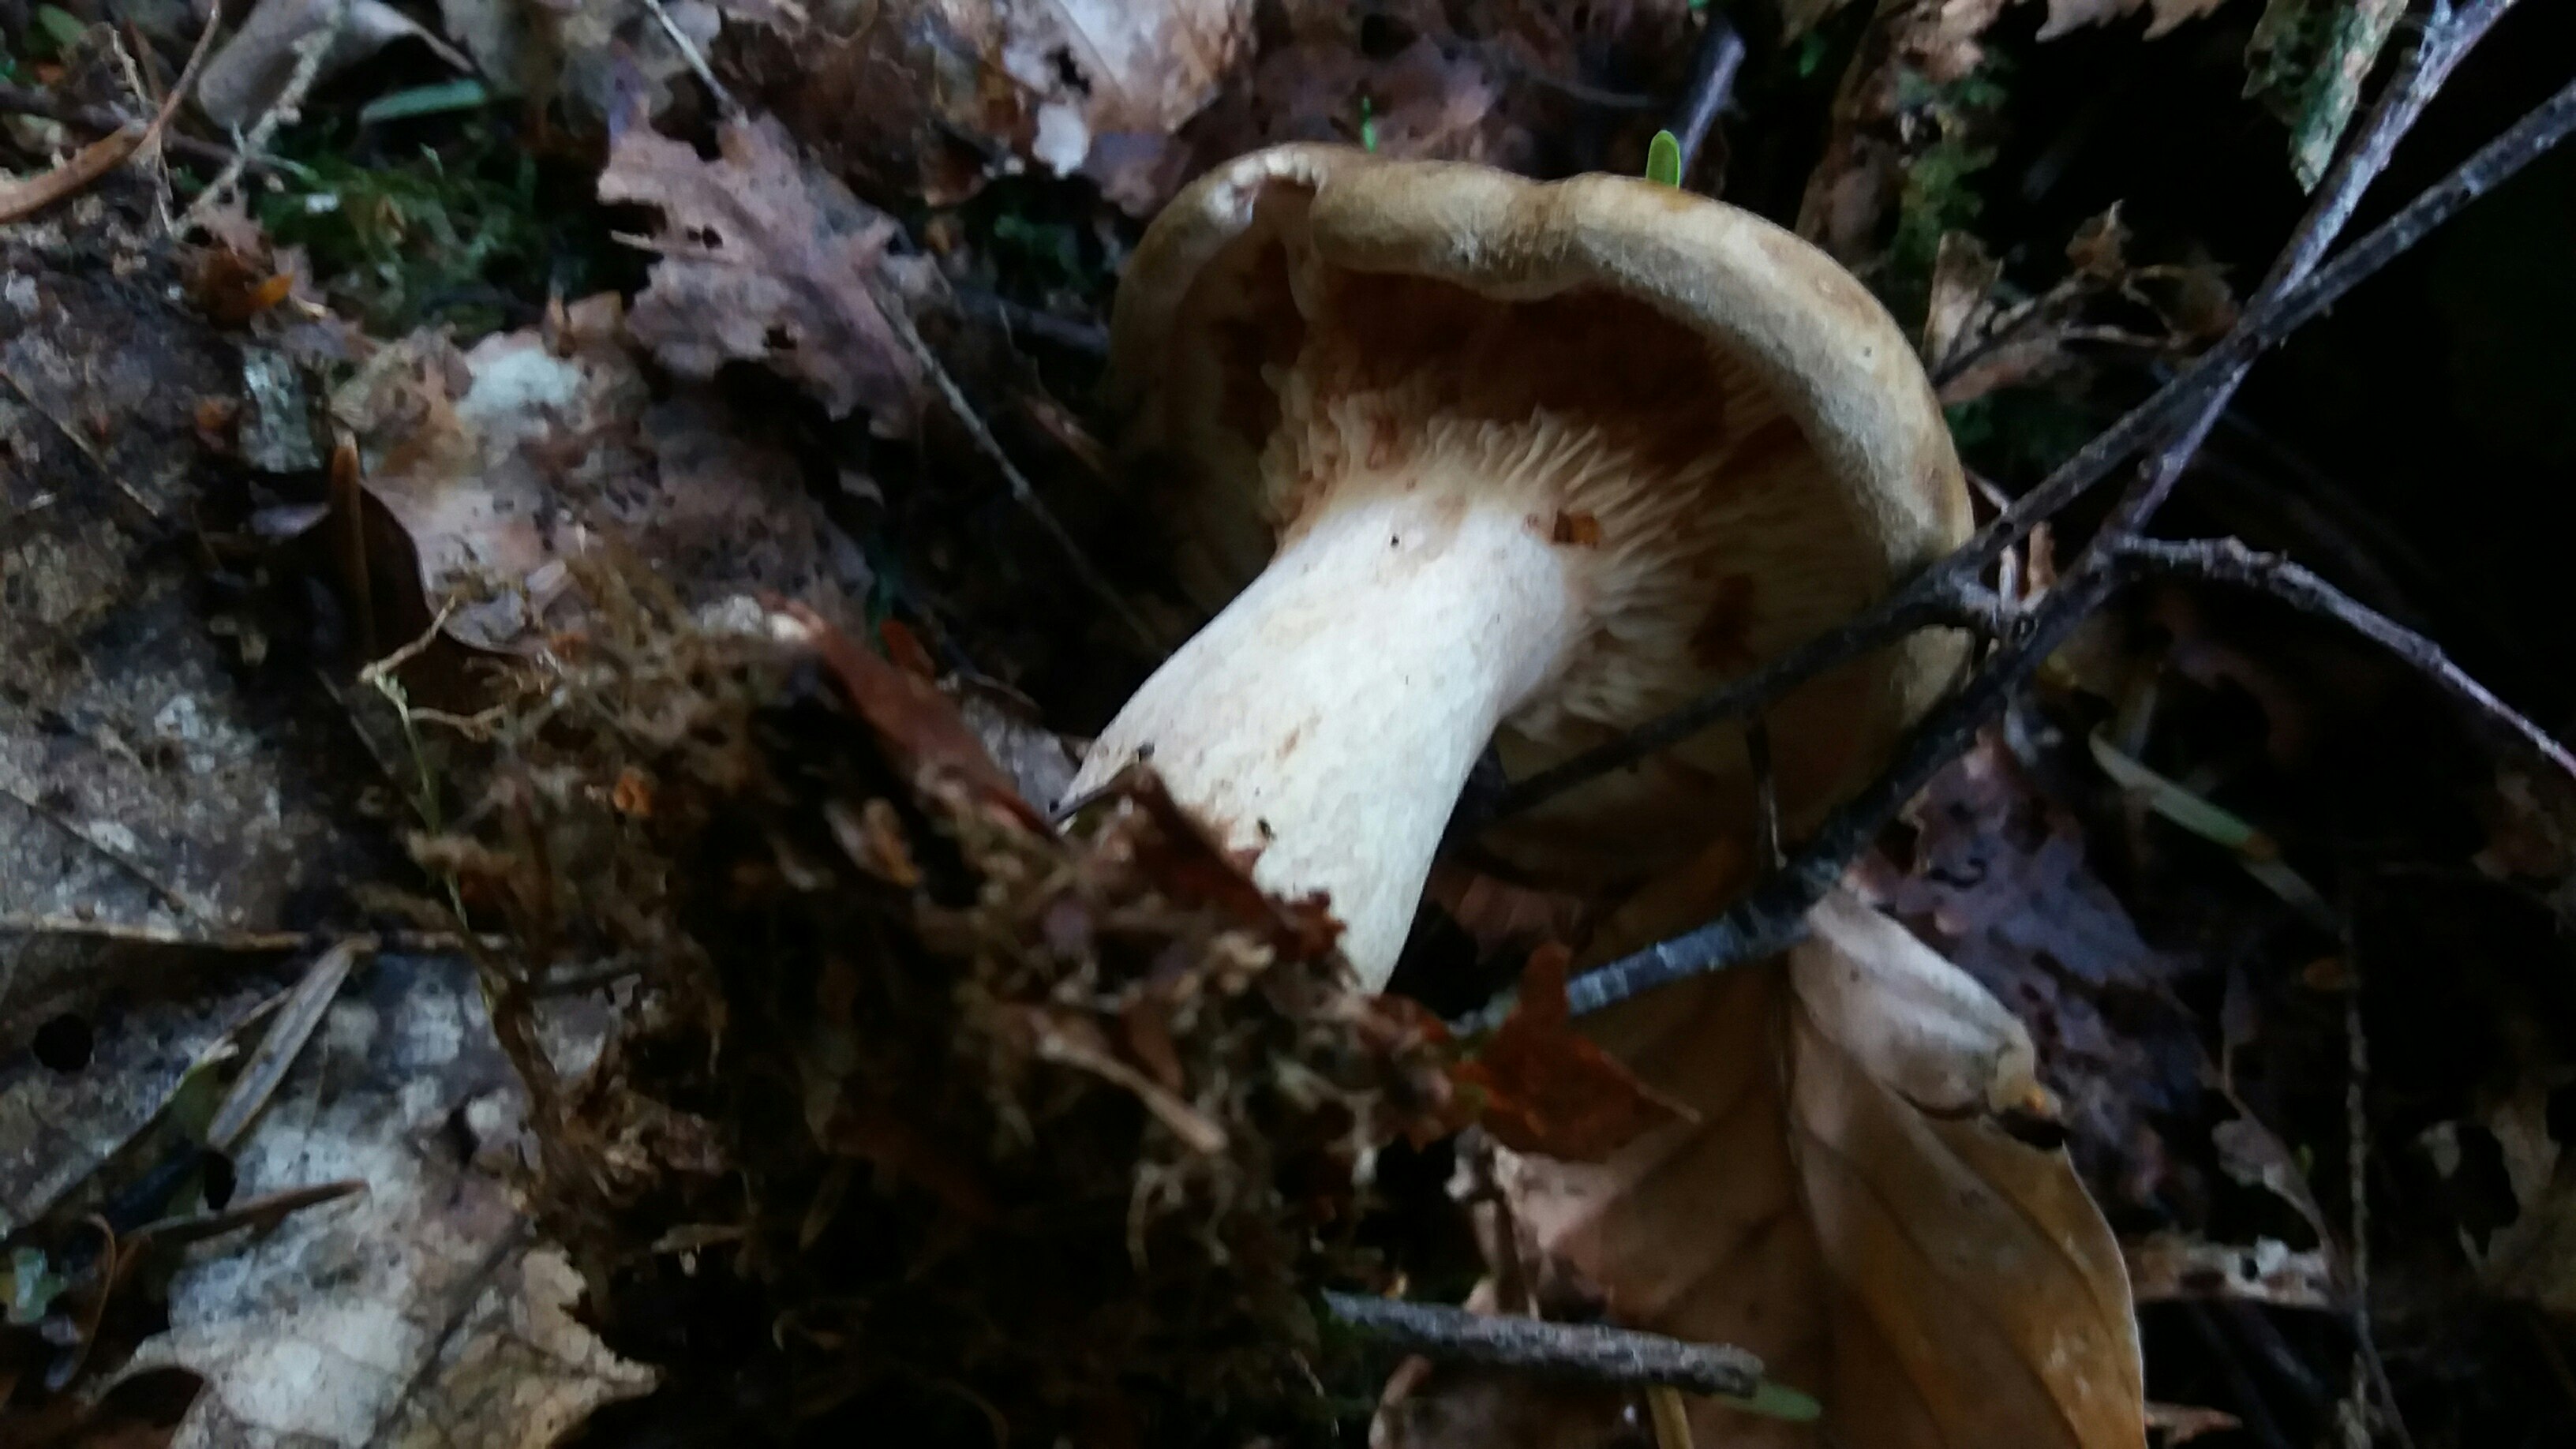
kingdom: Fungi
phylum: Basidiomycota
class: Agaricomycetes
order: Boletales
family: Paxillaceae
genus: Paxillus
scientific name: Paxillus involutus
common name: almindelig netbladhat
